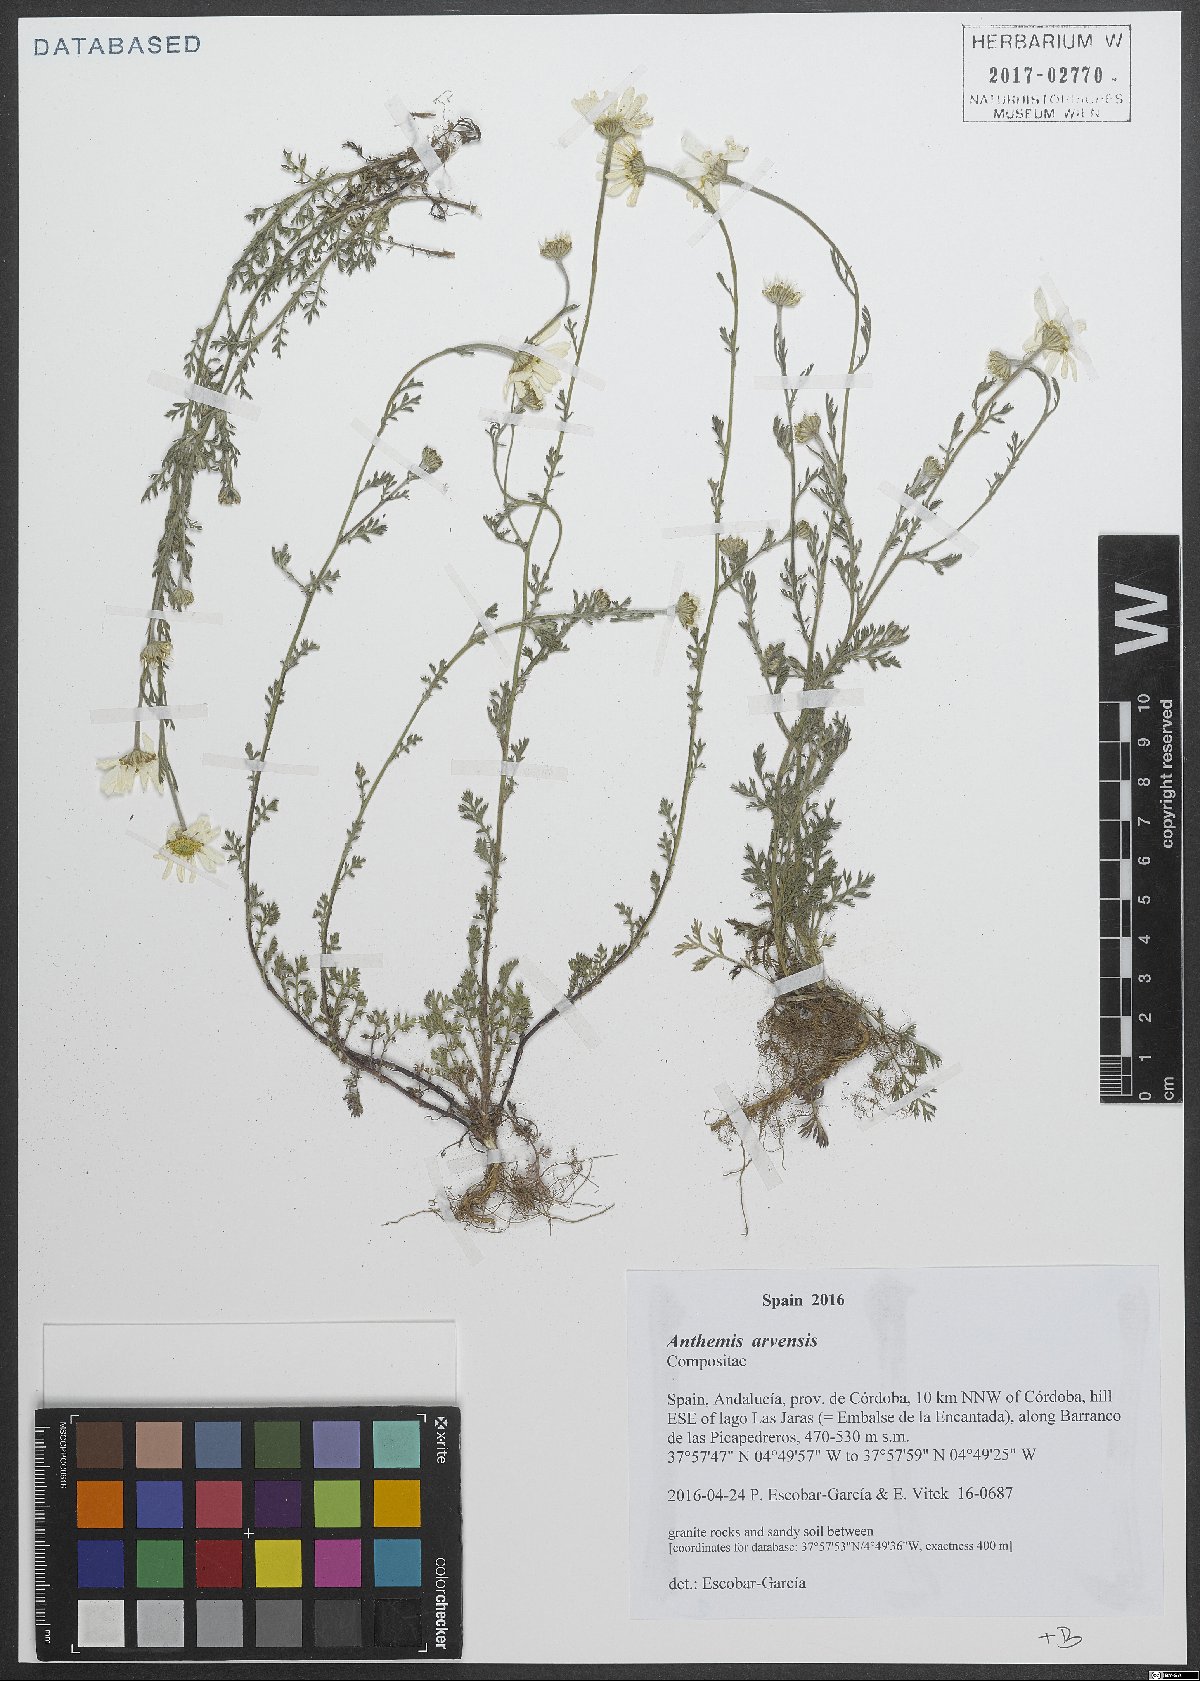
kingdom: Plantae
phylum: Tracheophyta
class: Magnoliopsida
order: Asterales
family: Asteraceae
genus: Anthemis
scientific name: Anthemis arvensis
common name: Corn chamomile
